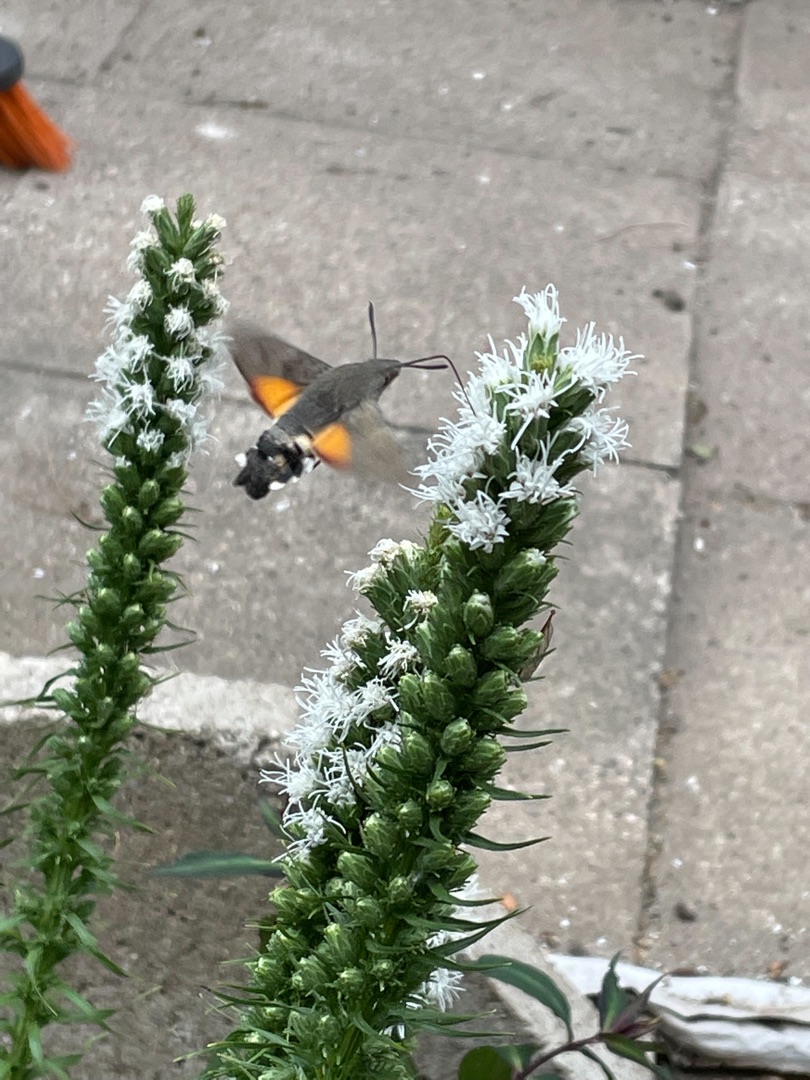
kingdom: Animalia
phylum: Arthropoda
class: Insecta
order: Lepidoptera
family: Sphingidae
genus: Macroglossum
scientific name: Macroglossum stellatarum
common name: Duehale
